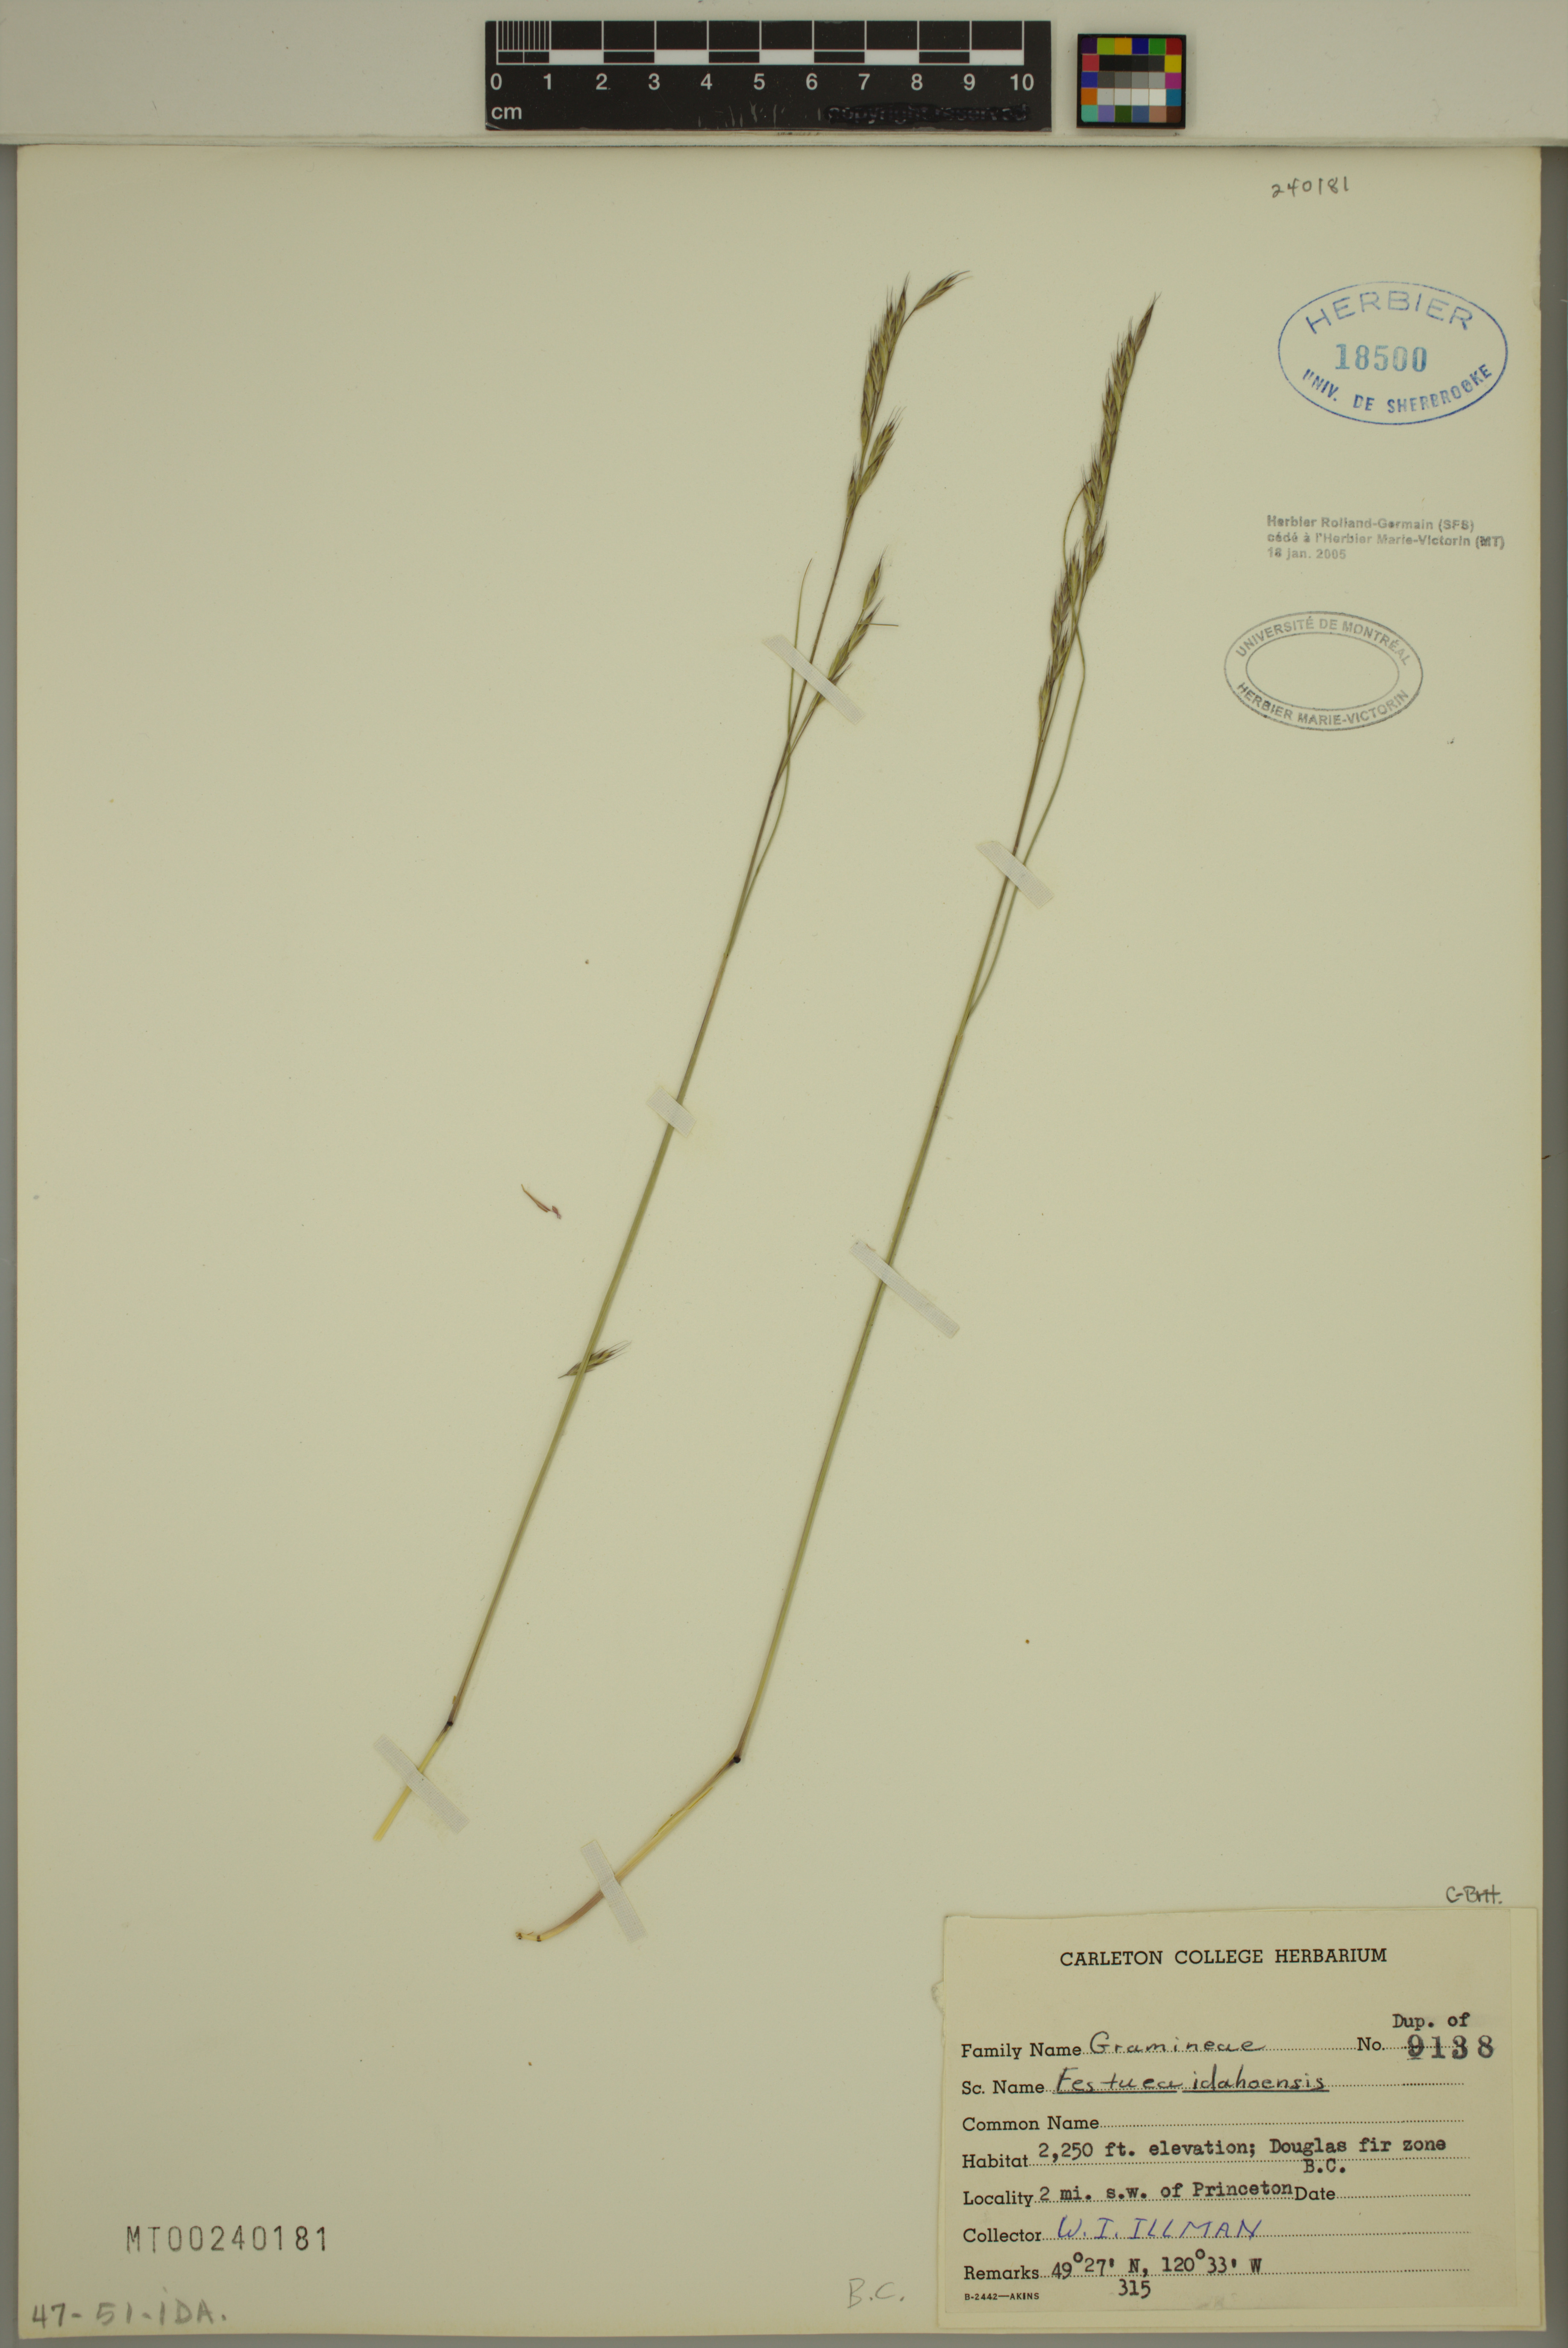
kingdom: Plantae
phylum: Tracheophyta
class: Liliopsida
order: Poales
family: Poaceae
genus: Festuca
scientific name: Festuca idahoensis
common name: Idaho fescue
